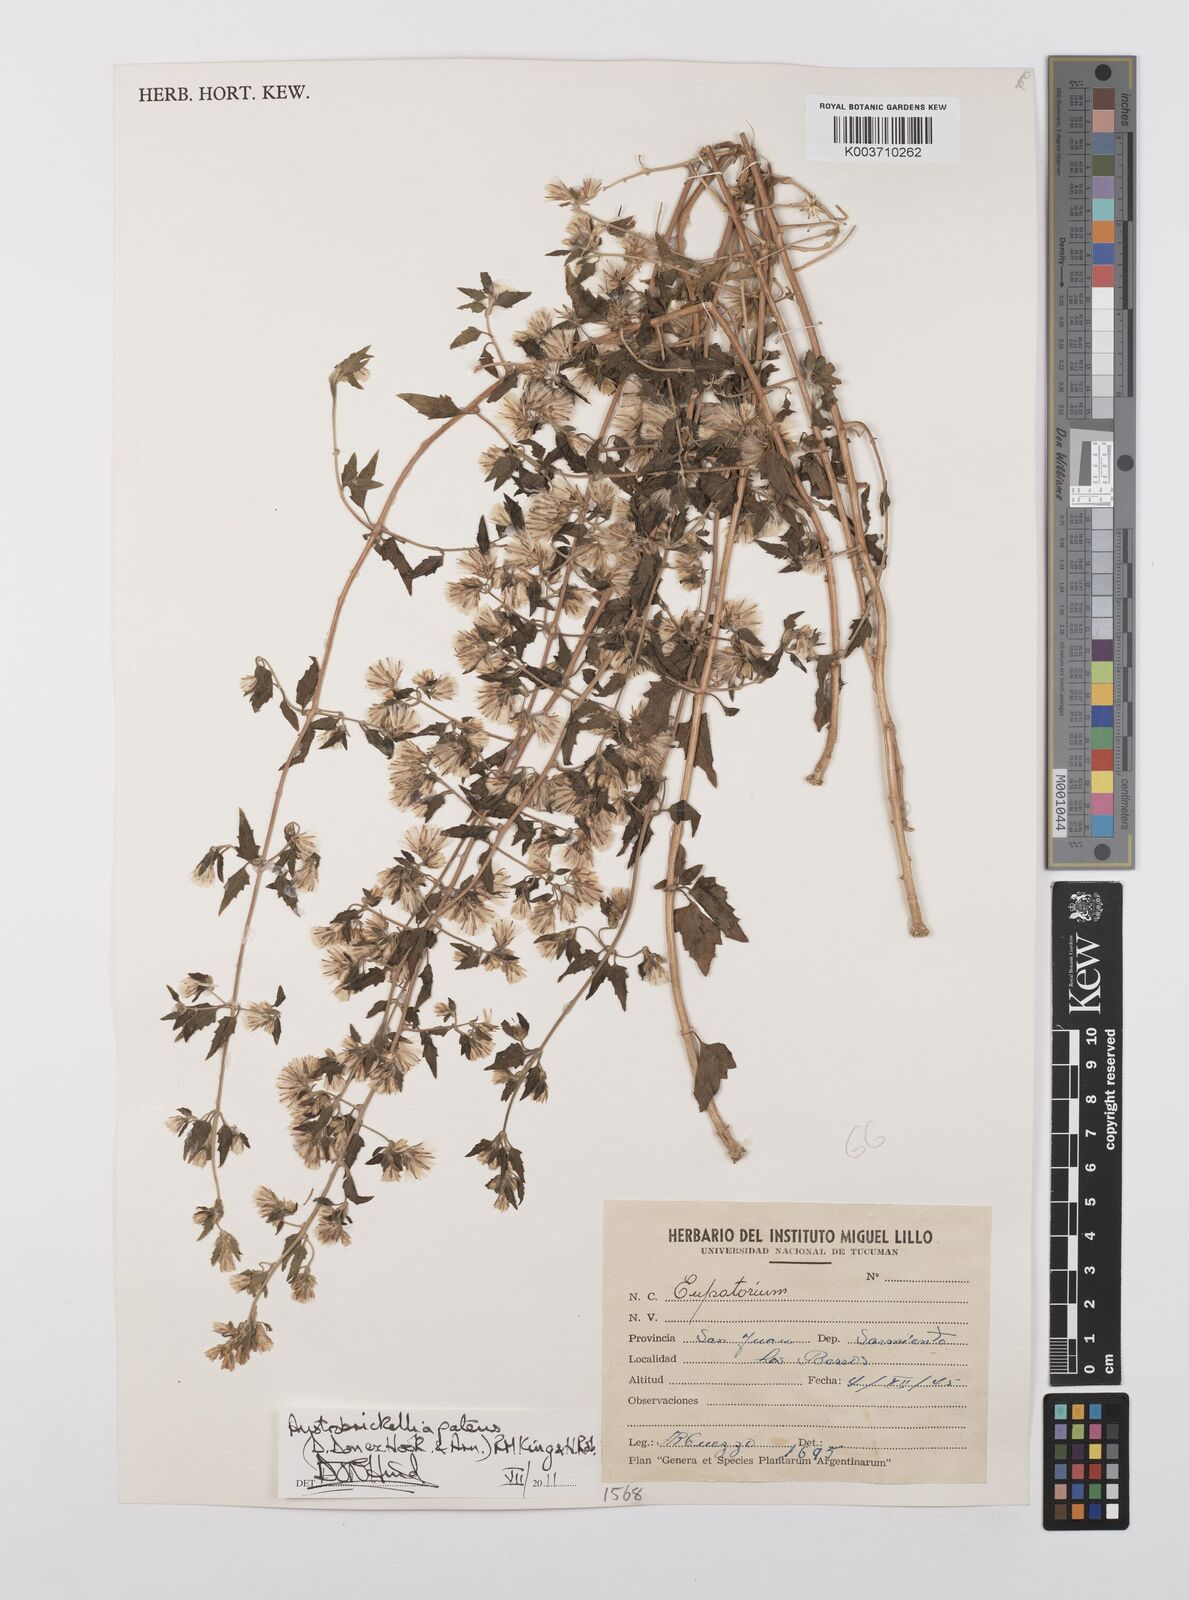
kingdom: Plantae
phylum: Tracheophyta
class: Magnoliopsida
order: Asterales
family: Asteraceae
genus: Austrobrickellia
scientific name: Austrobrickellia patens
